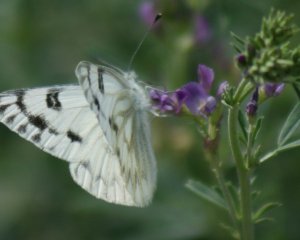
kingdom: Animalia
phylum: Arthropoda
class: Insecta
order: Lepidoptera
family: Pieridae
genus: Pontia
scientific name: Pontia occidentalis
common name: Western White
